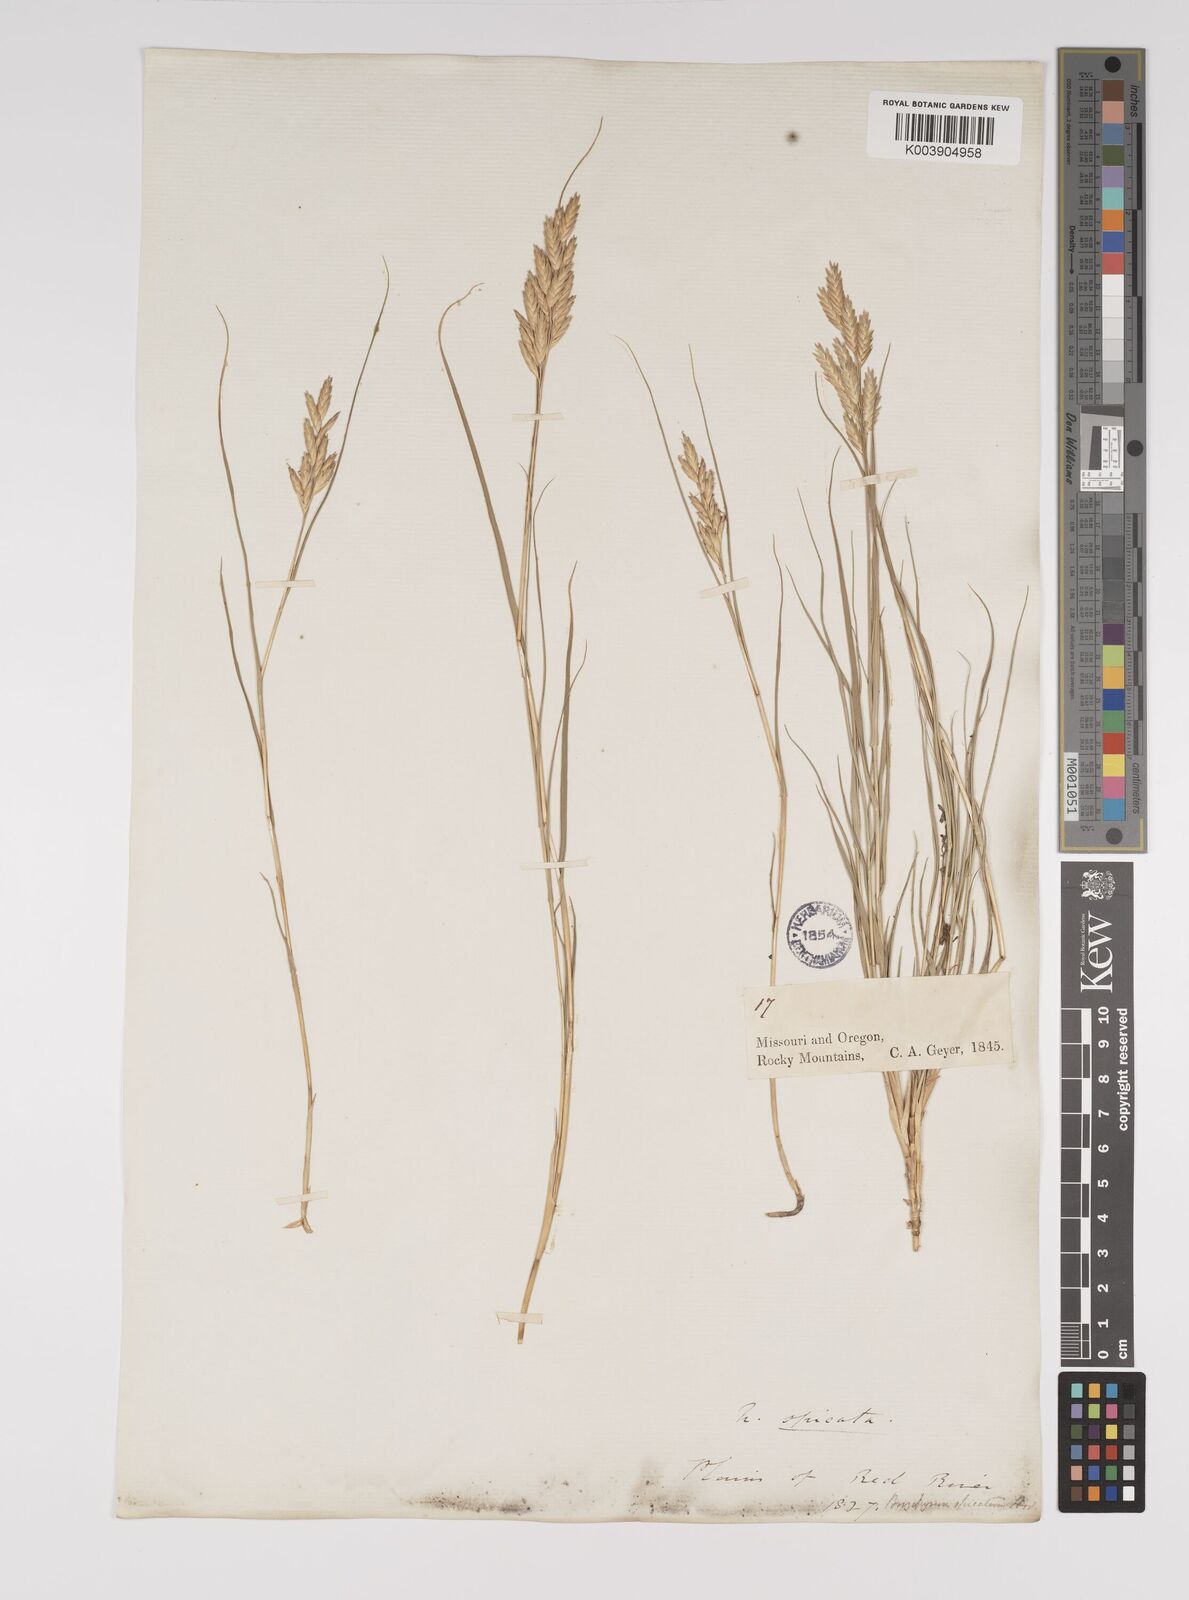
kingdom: Plantae
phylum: Tracheophyta
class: Liliopsida
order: Poales
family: Poaceae
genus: Distichlis
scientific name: Distichlis spicata
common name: Saltgrass
